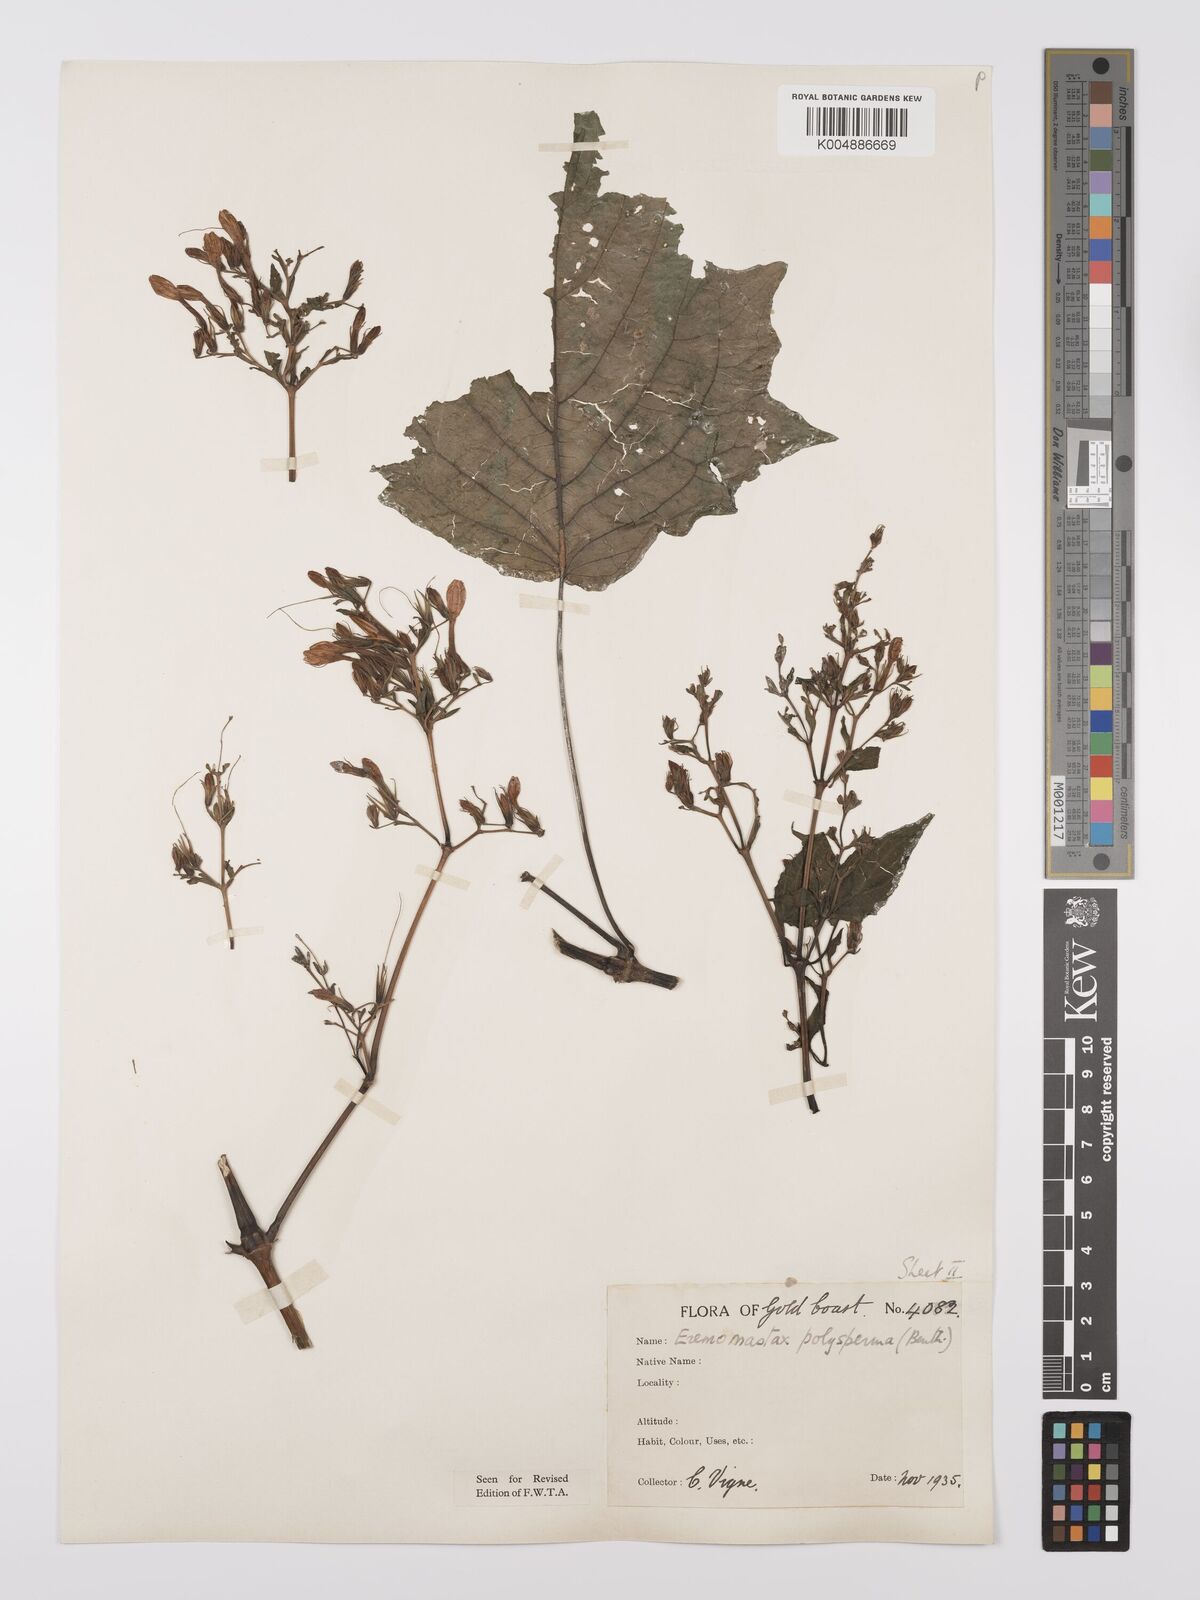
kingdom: Plantae
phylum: Tracheophyta
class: Magnoliopsida
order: Lamiales
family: Acanthaceae
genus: Eremomastax
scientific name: Eremomastax speciosa
